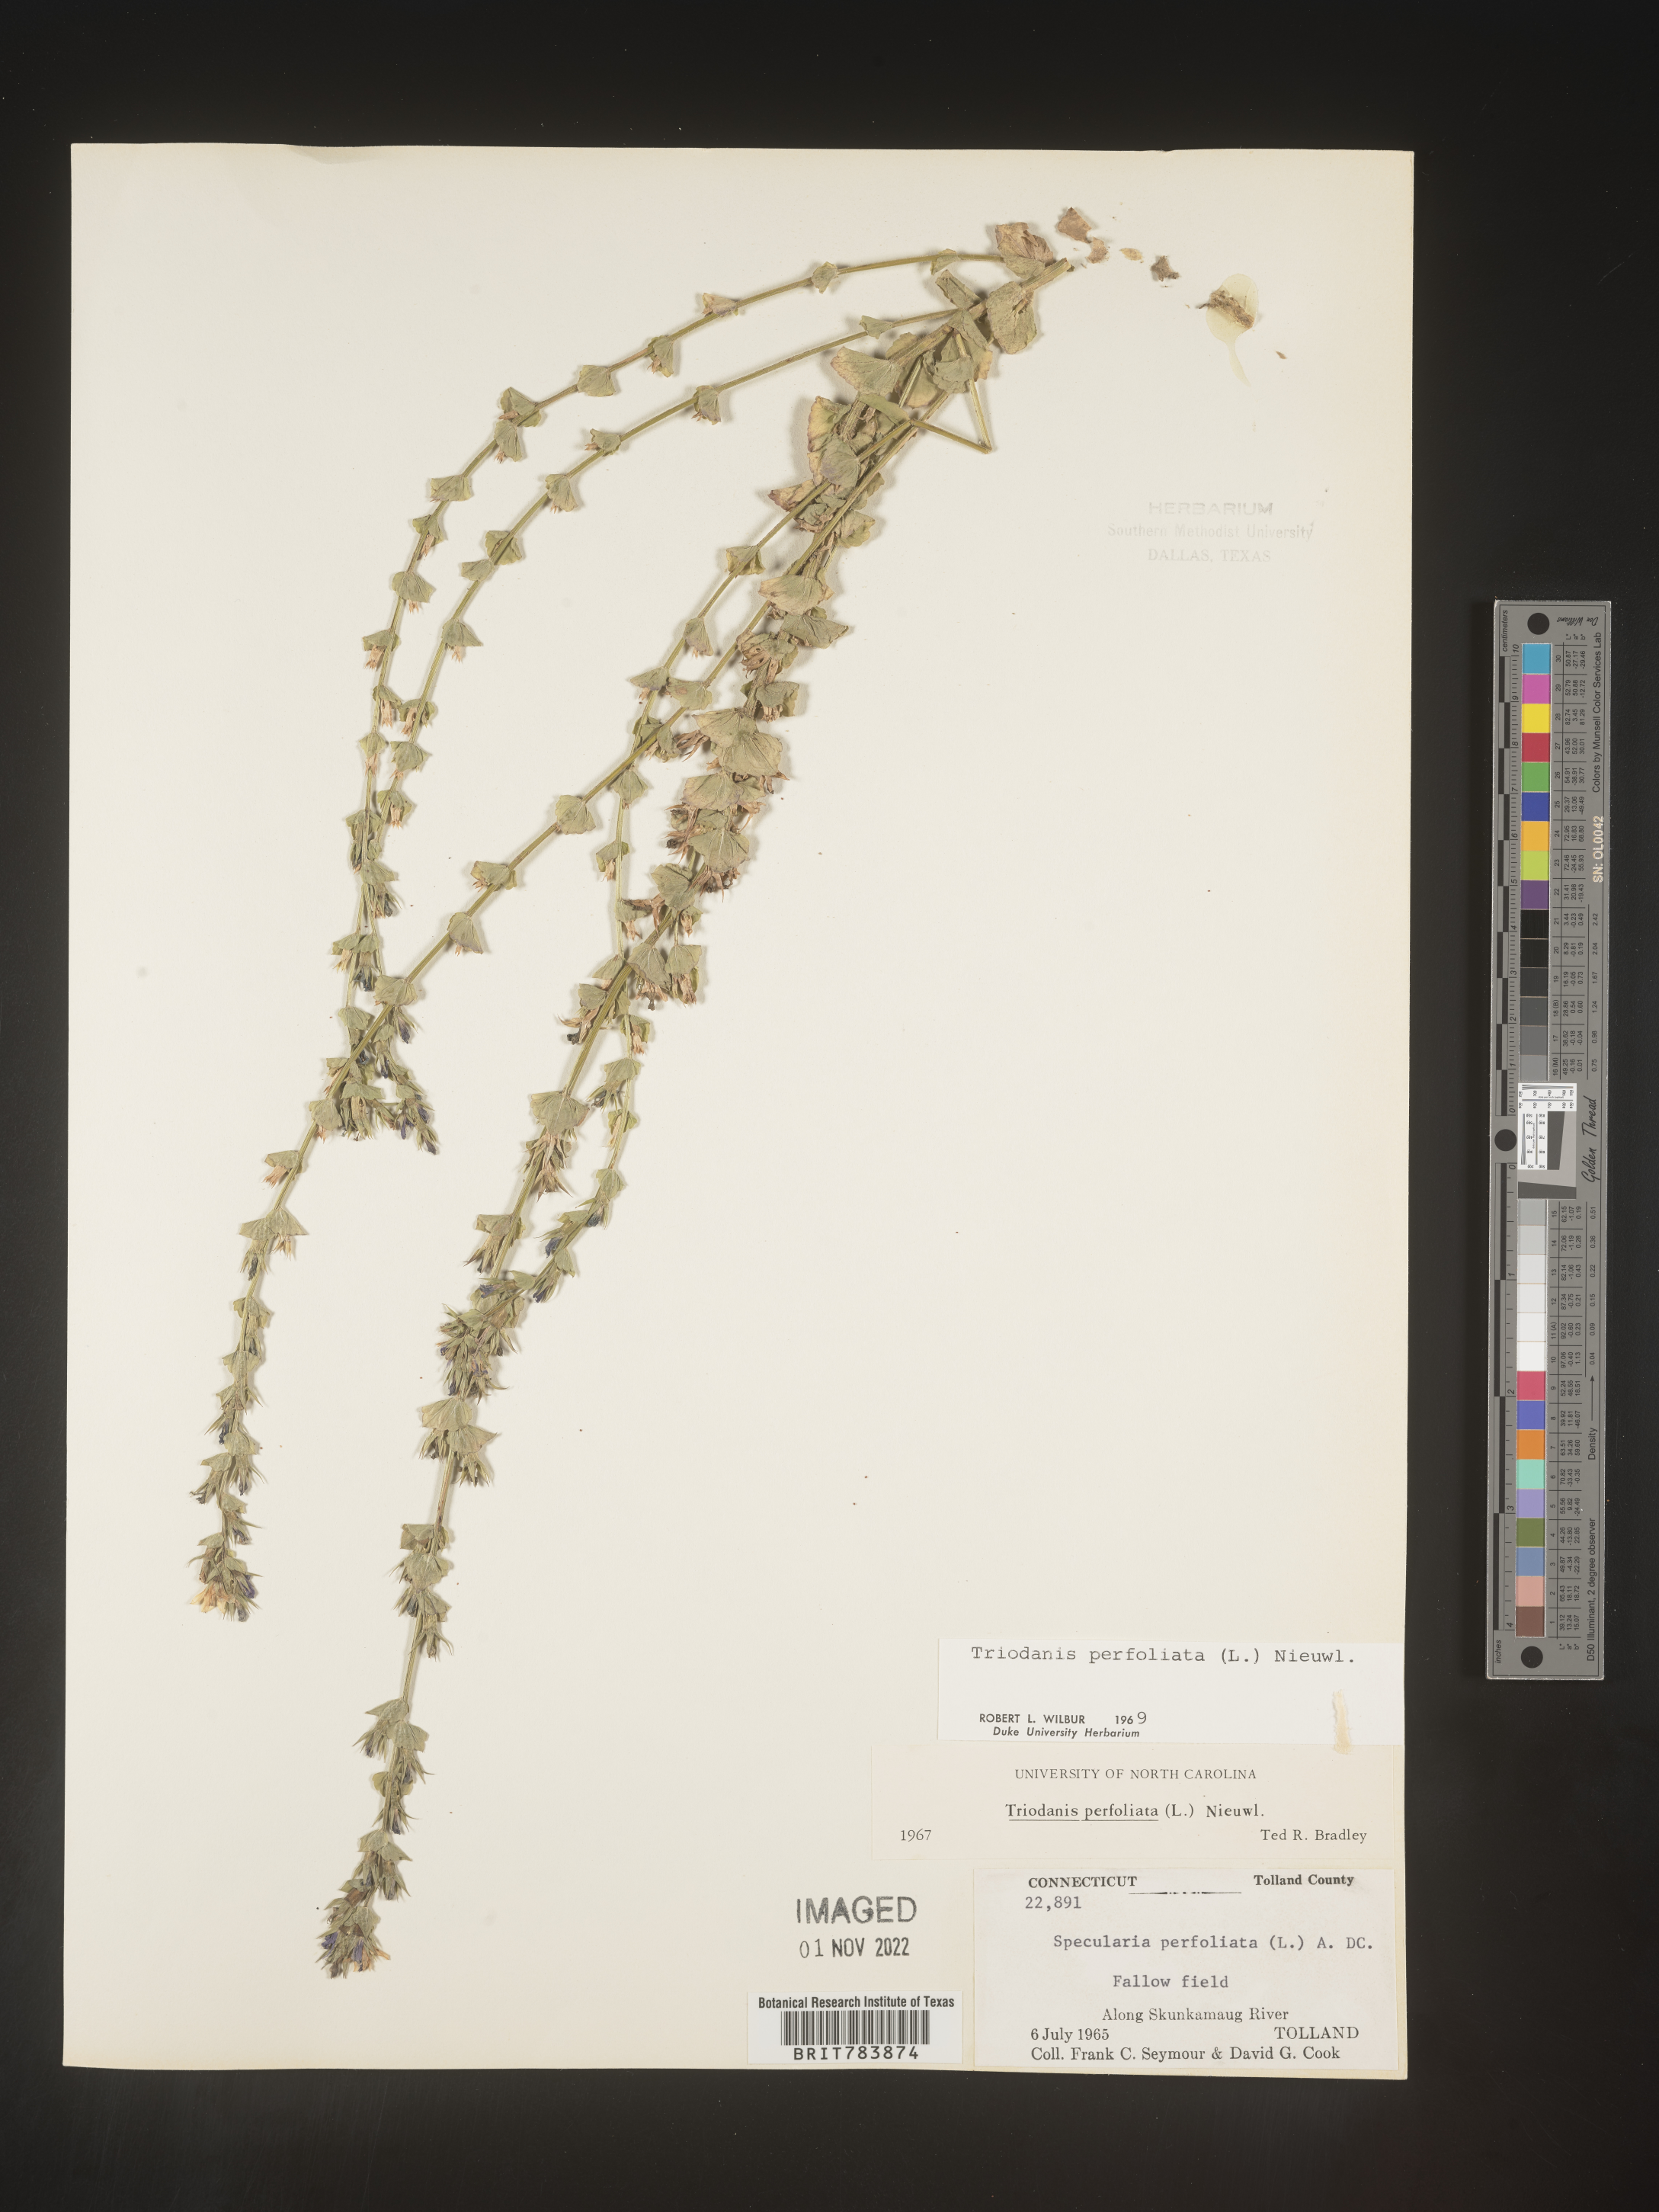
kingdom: Plantae
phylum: Tracheophyta
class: Magnoliopsida
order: Asterales
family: Campanulaceae
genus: Triodanis
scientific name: Triodanis perfoliata
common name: Clasping venus' looking-glass
